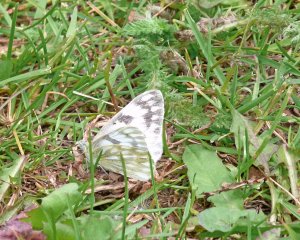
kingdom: Animalia
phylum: Arthropoda
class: Insecta
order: Lepidoptera
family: Pieridae
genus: Pontia
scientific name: Pontia occidentalis
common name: Western White
